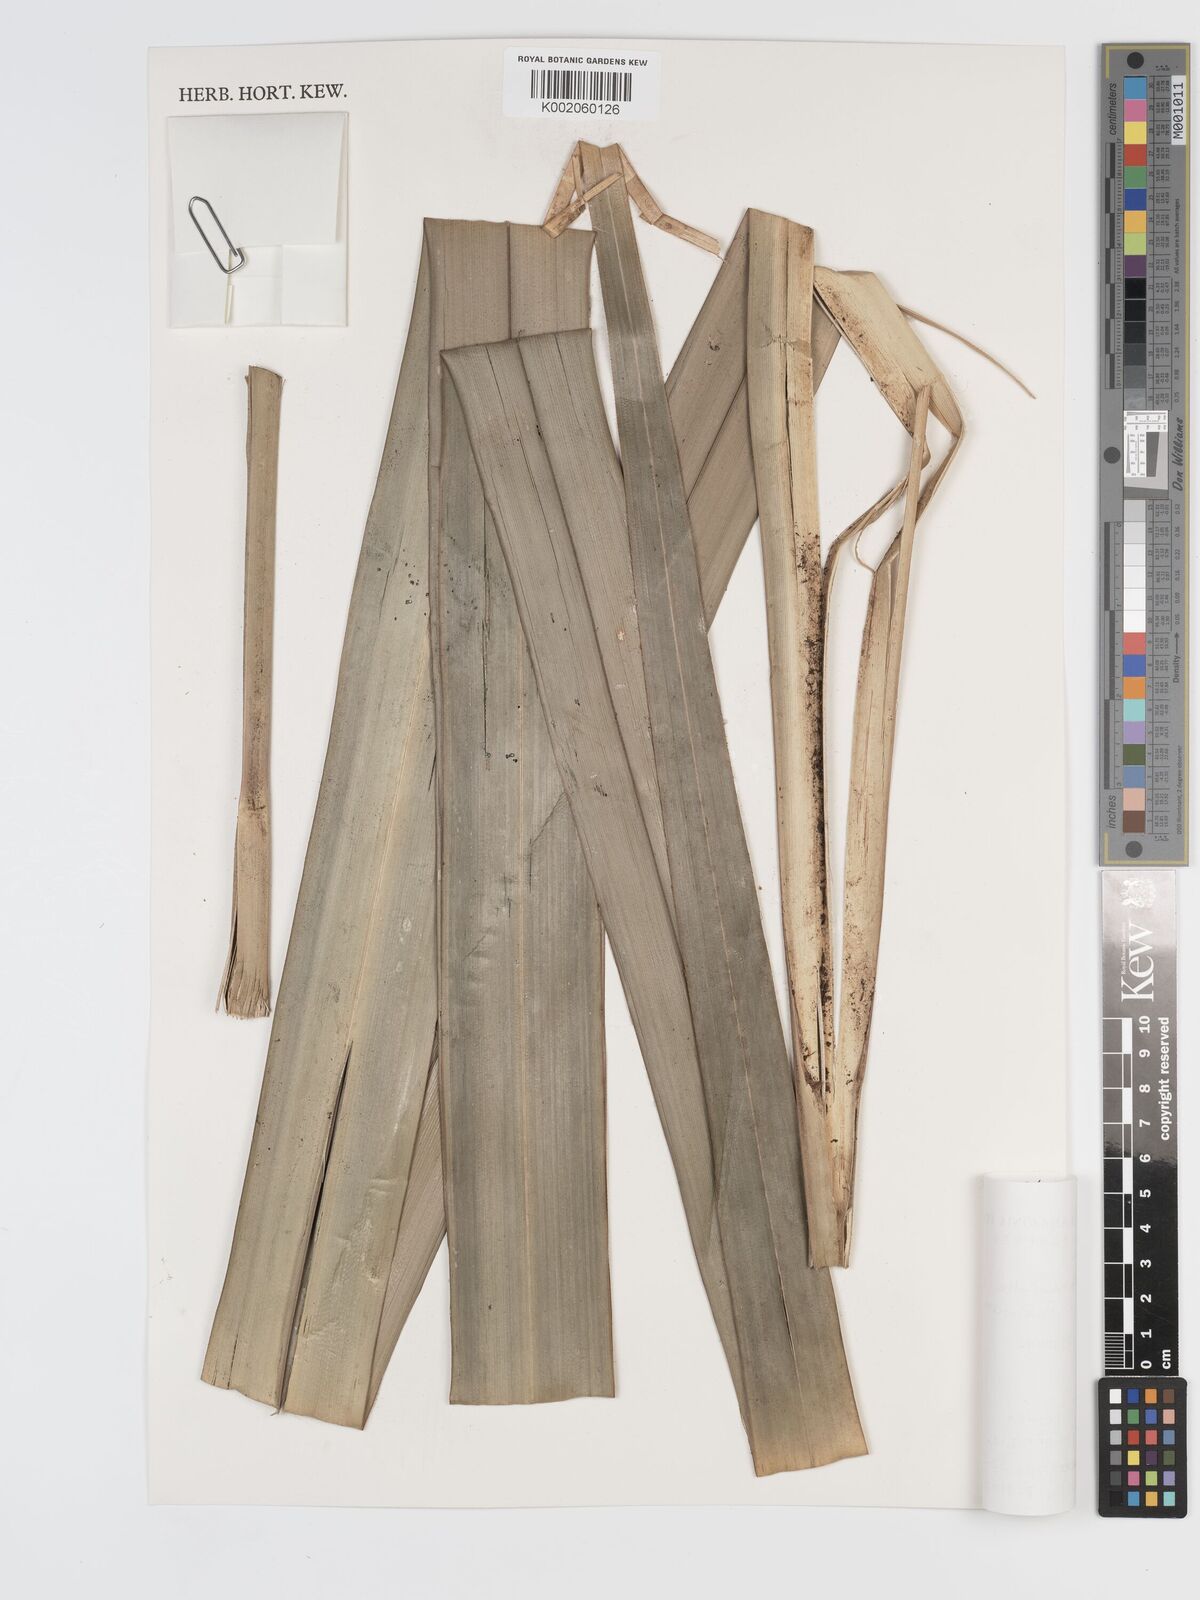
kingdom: Plantae
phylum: Tracheophyta
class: Liliopsida
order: Poales
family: Cyperaceae
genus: Diplasia
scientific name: Diplasia karatifolia
